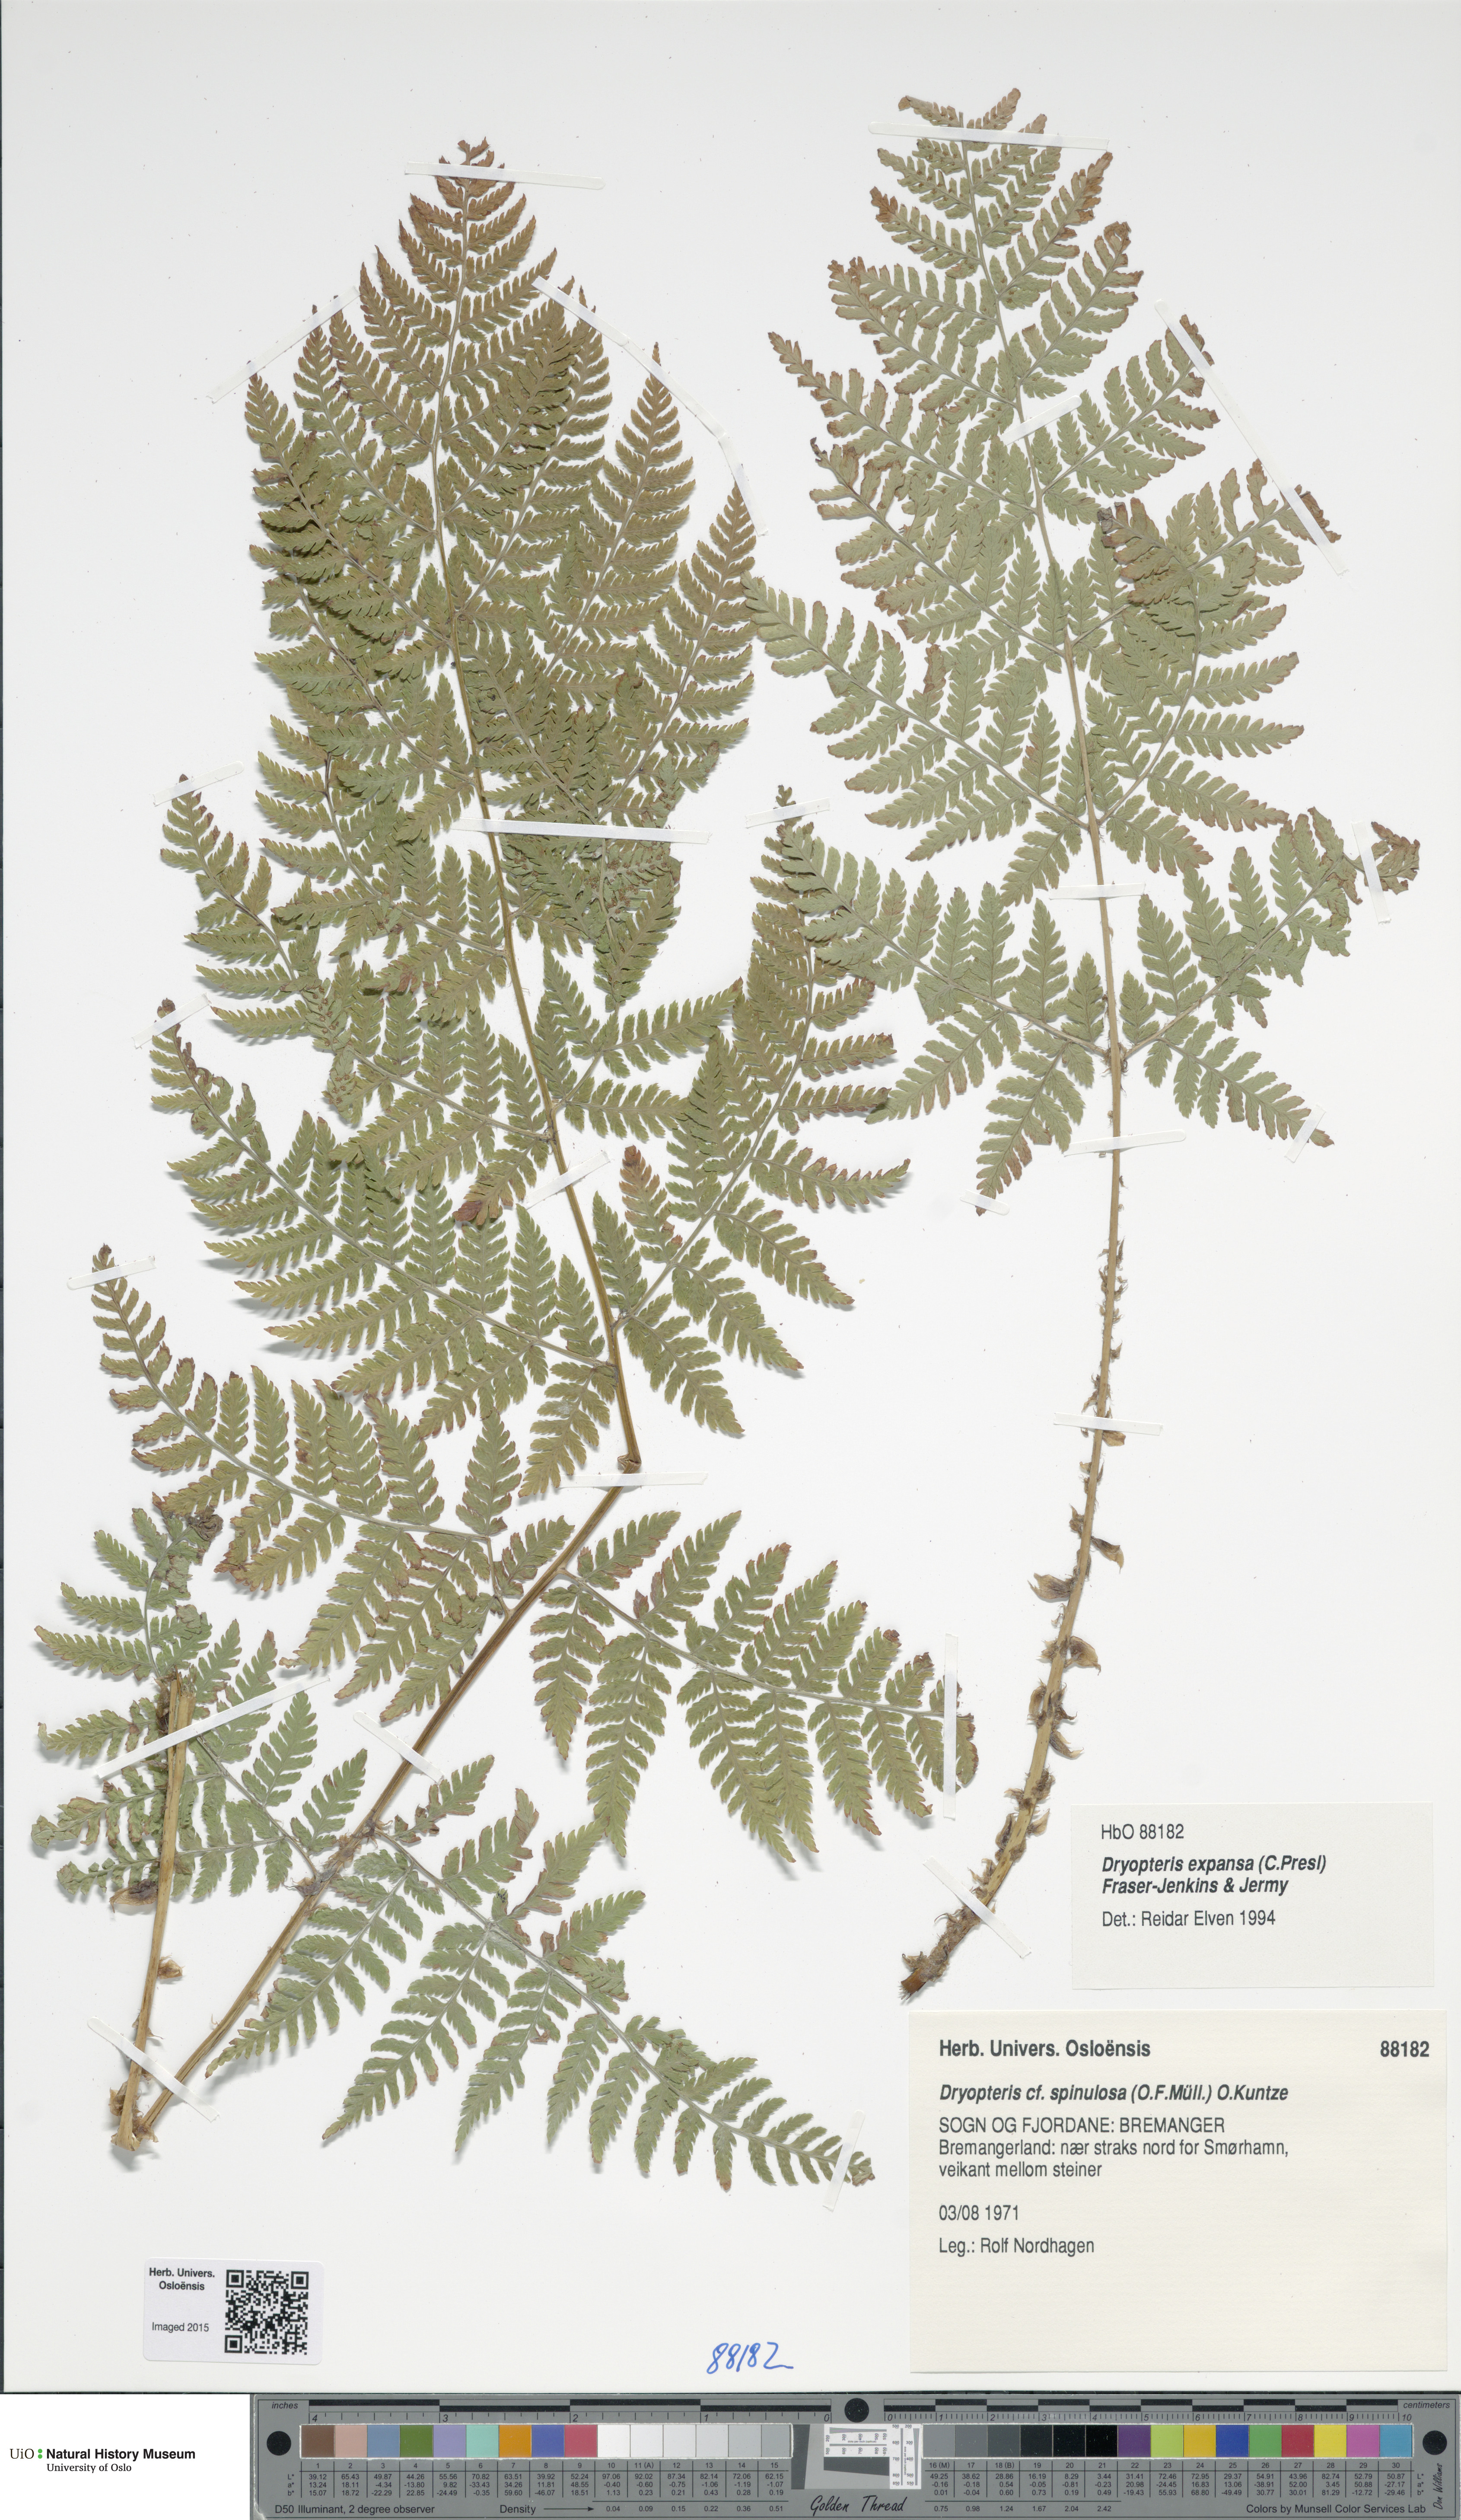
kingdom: Plantae
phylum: Tracheophyta
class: Polypodiopsida
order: Polypodiales
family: Dryopteridaceae
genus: Dryopteris
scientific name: Dryopteris expansa
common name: Northern buckler fern
